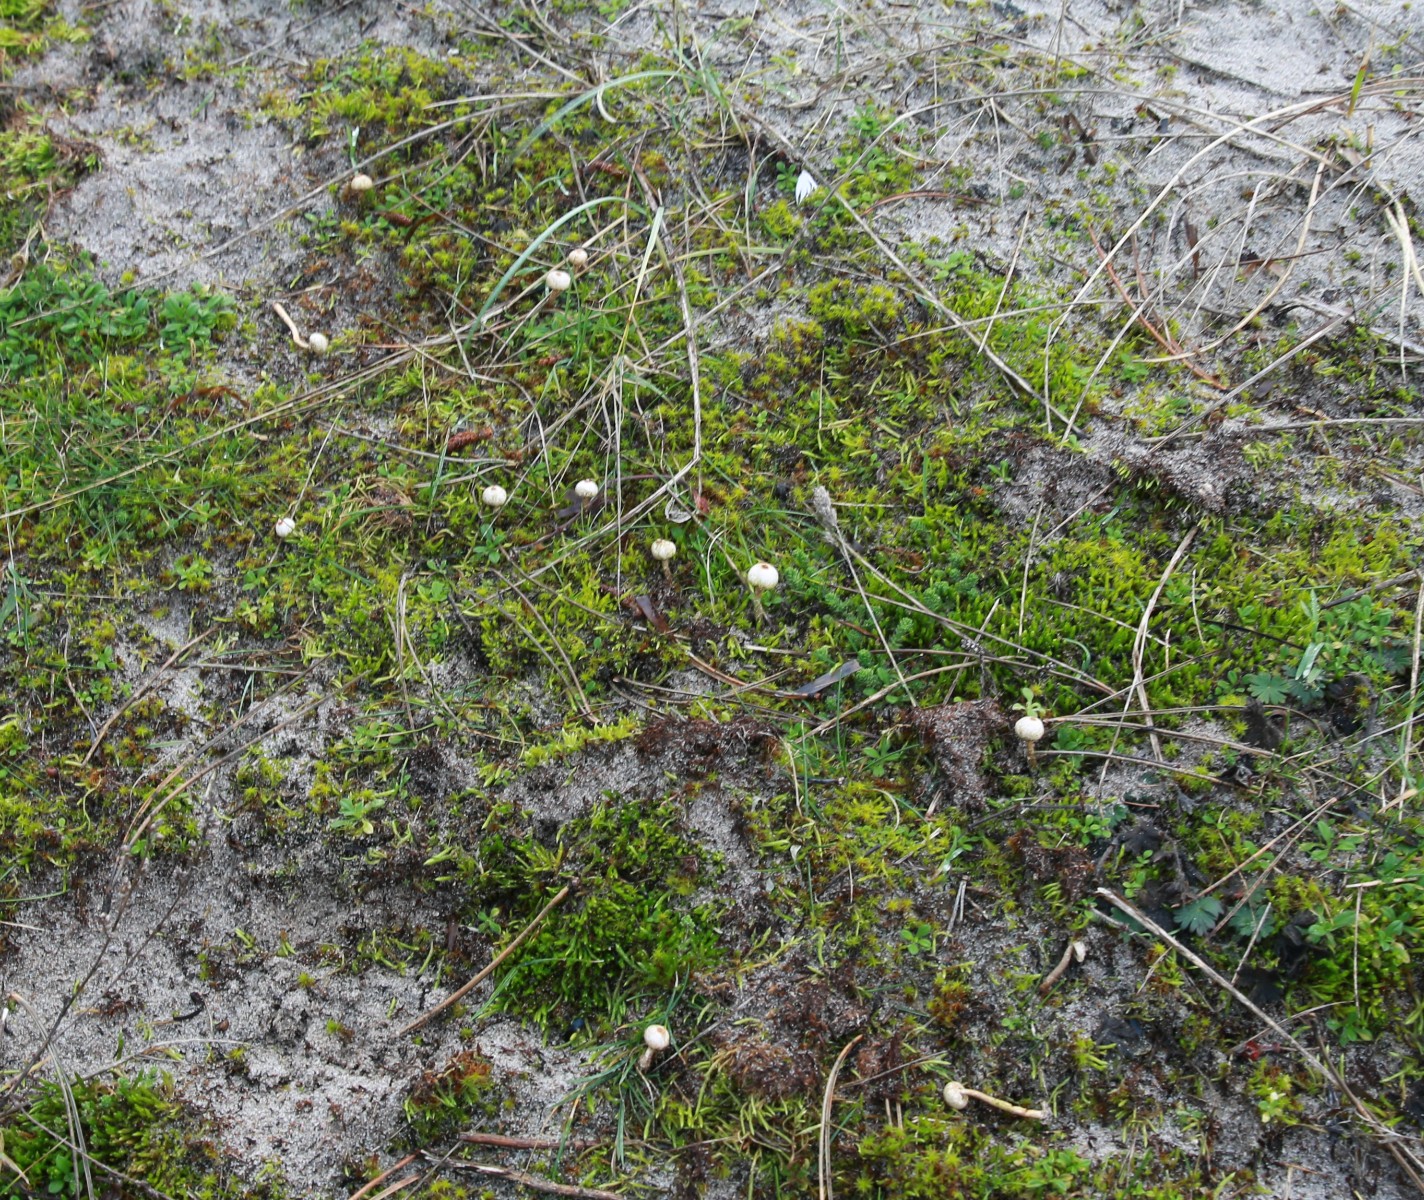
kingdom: Fungi
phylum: Basidiomycota
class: Agaricomycetes
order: Agaricales
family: Agaricaceae
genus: Tulostoma
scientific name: Tulostoma brumale
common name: vinter-stilkbovist
